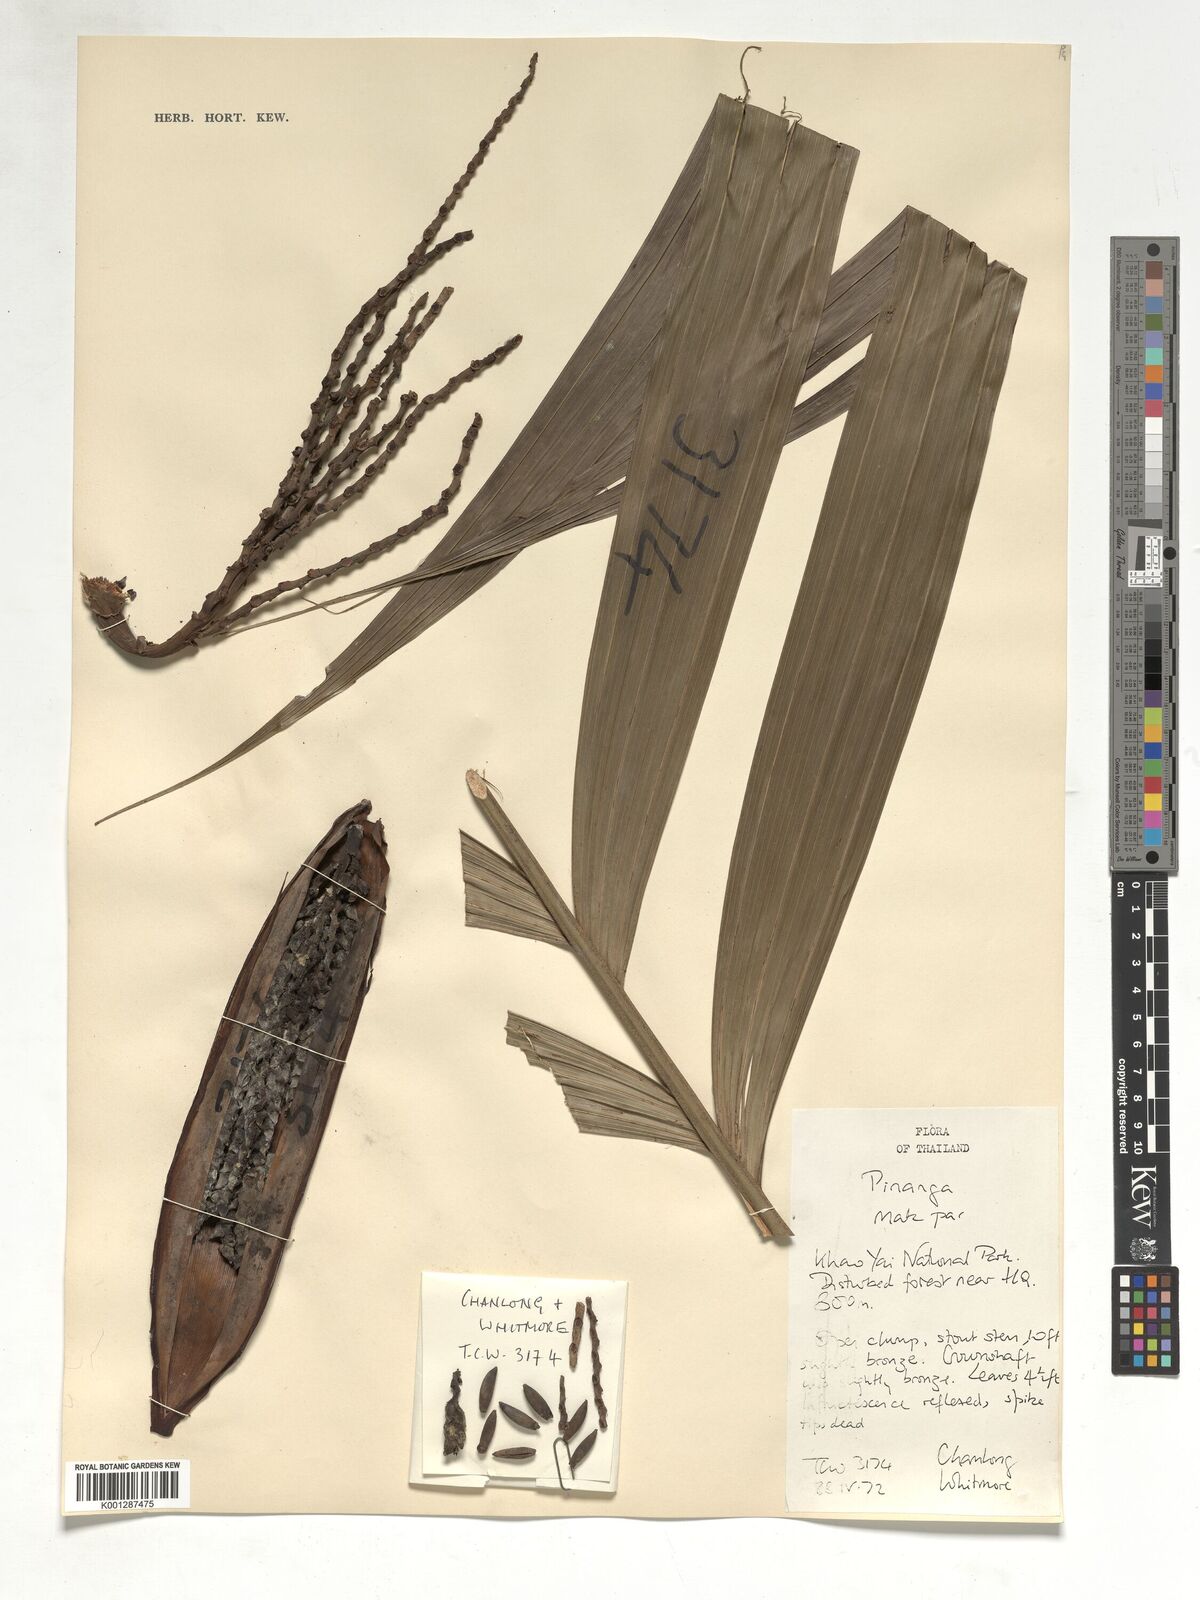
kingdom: Plantae
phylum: Tracheophyta
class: Liliopsida
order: Arecales
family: Arecaceae
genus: Pinanga
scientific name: Pinanga
